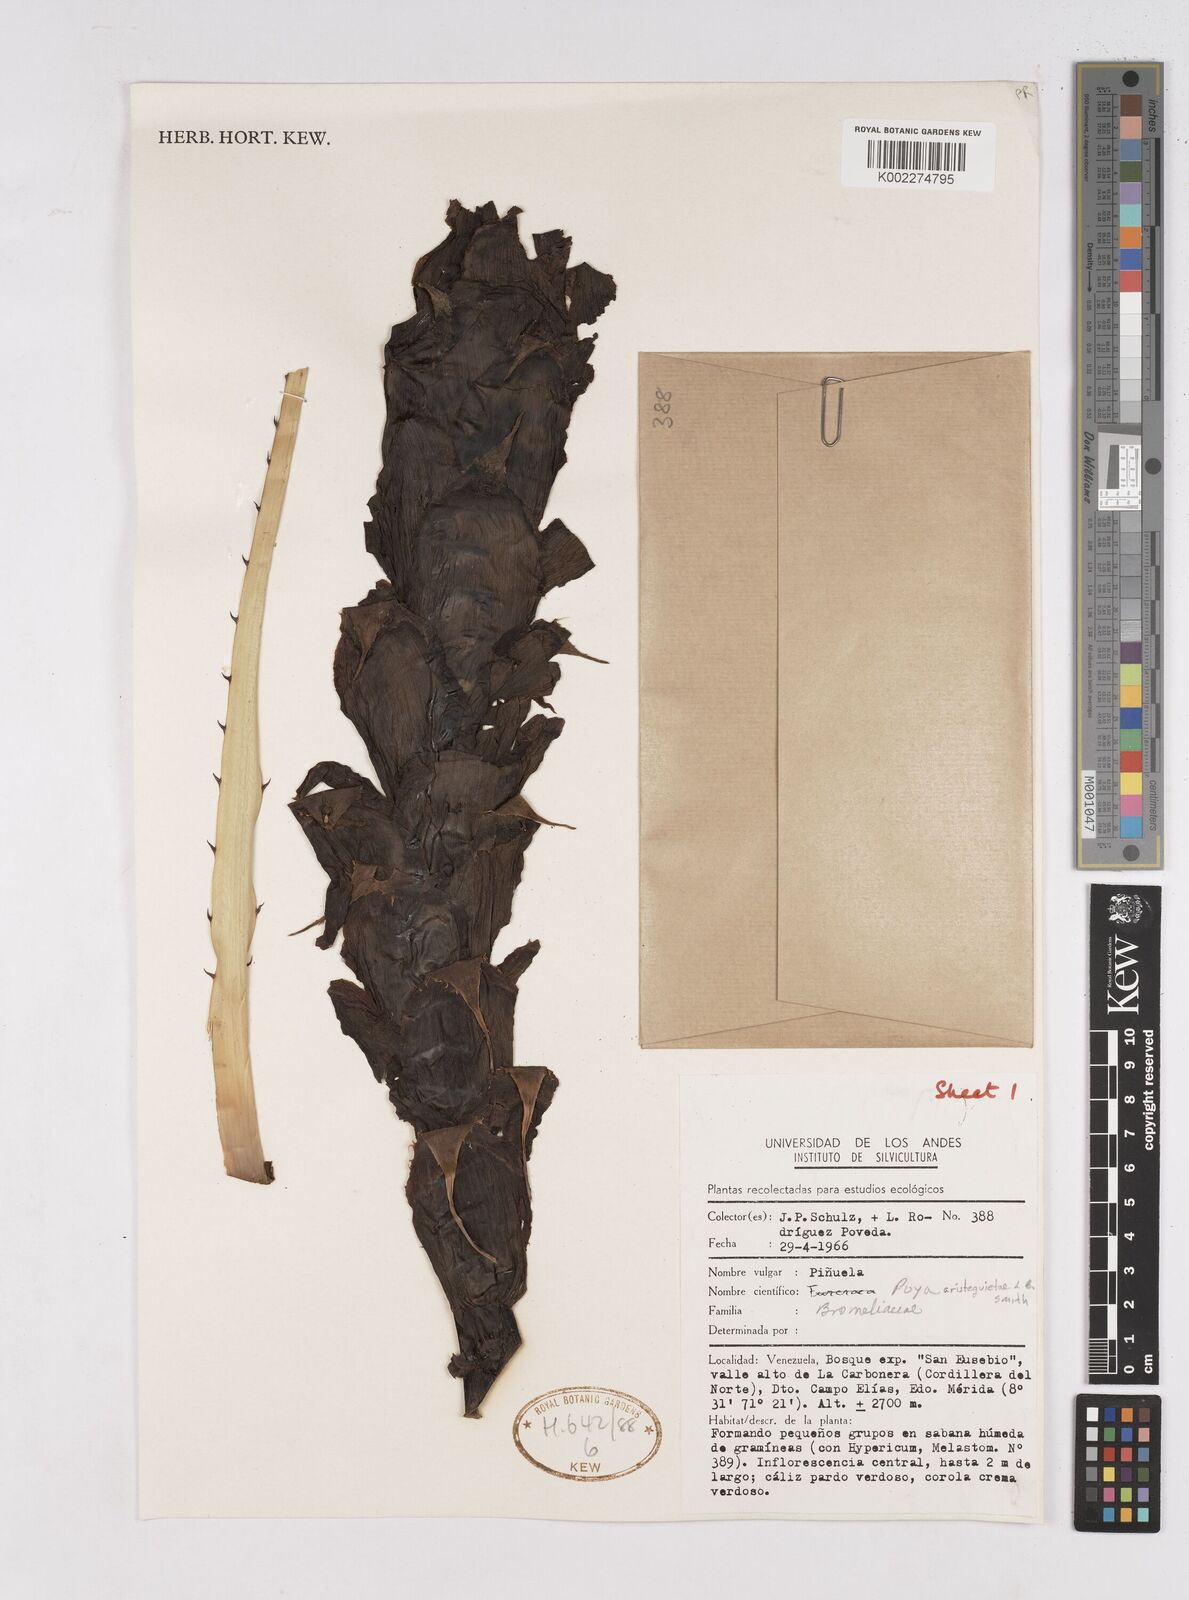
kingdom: Plantae
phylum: Tracheophyta
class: Liliopsida
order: Poales
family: Bromeliaceae
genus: Puya
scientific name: Puya aristeguietae
